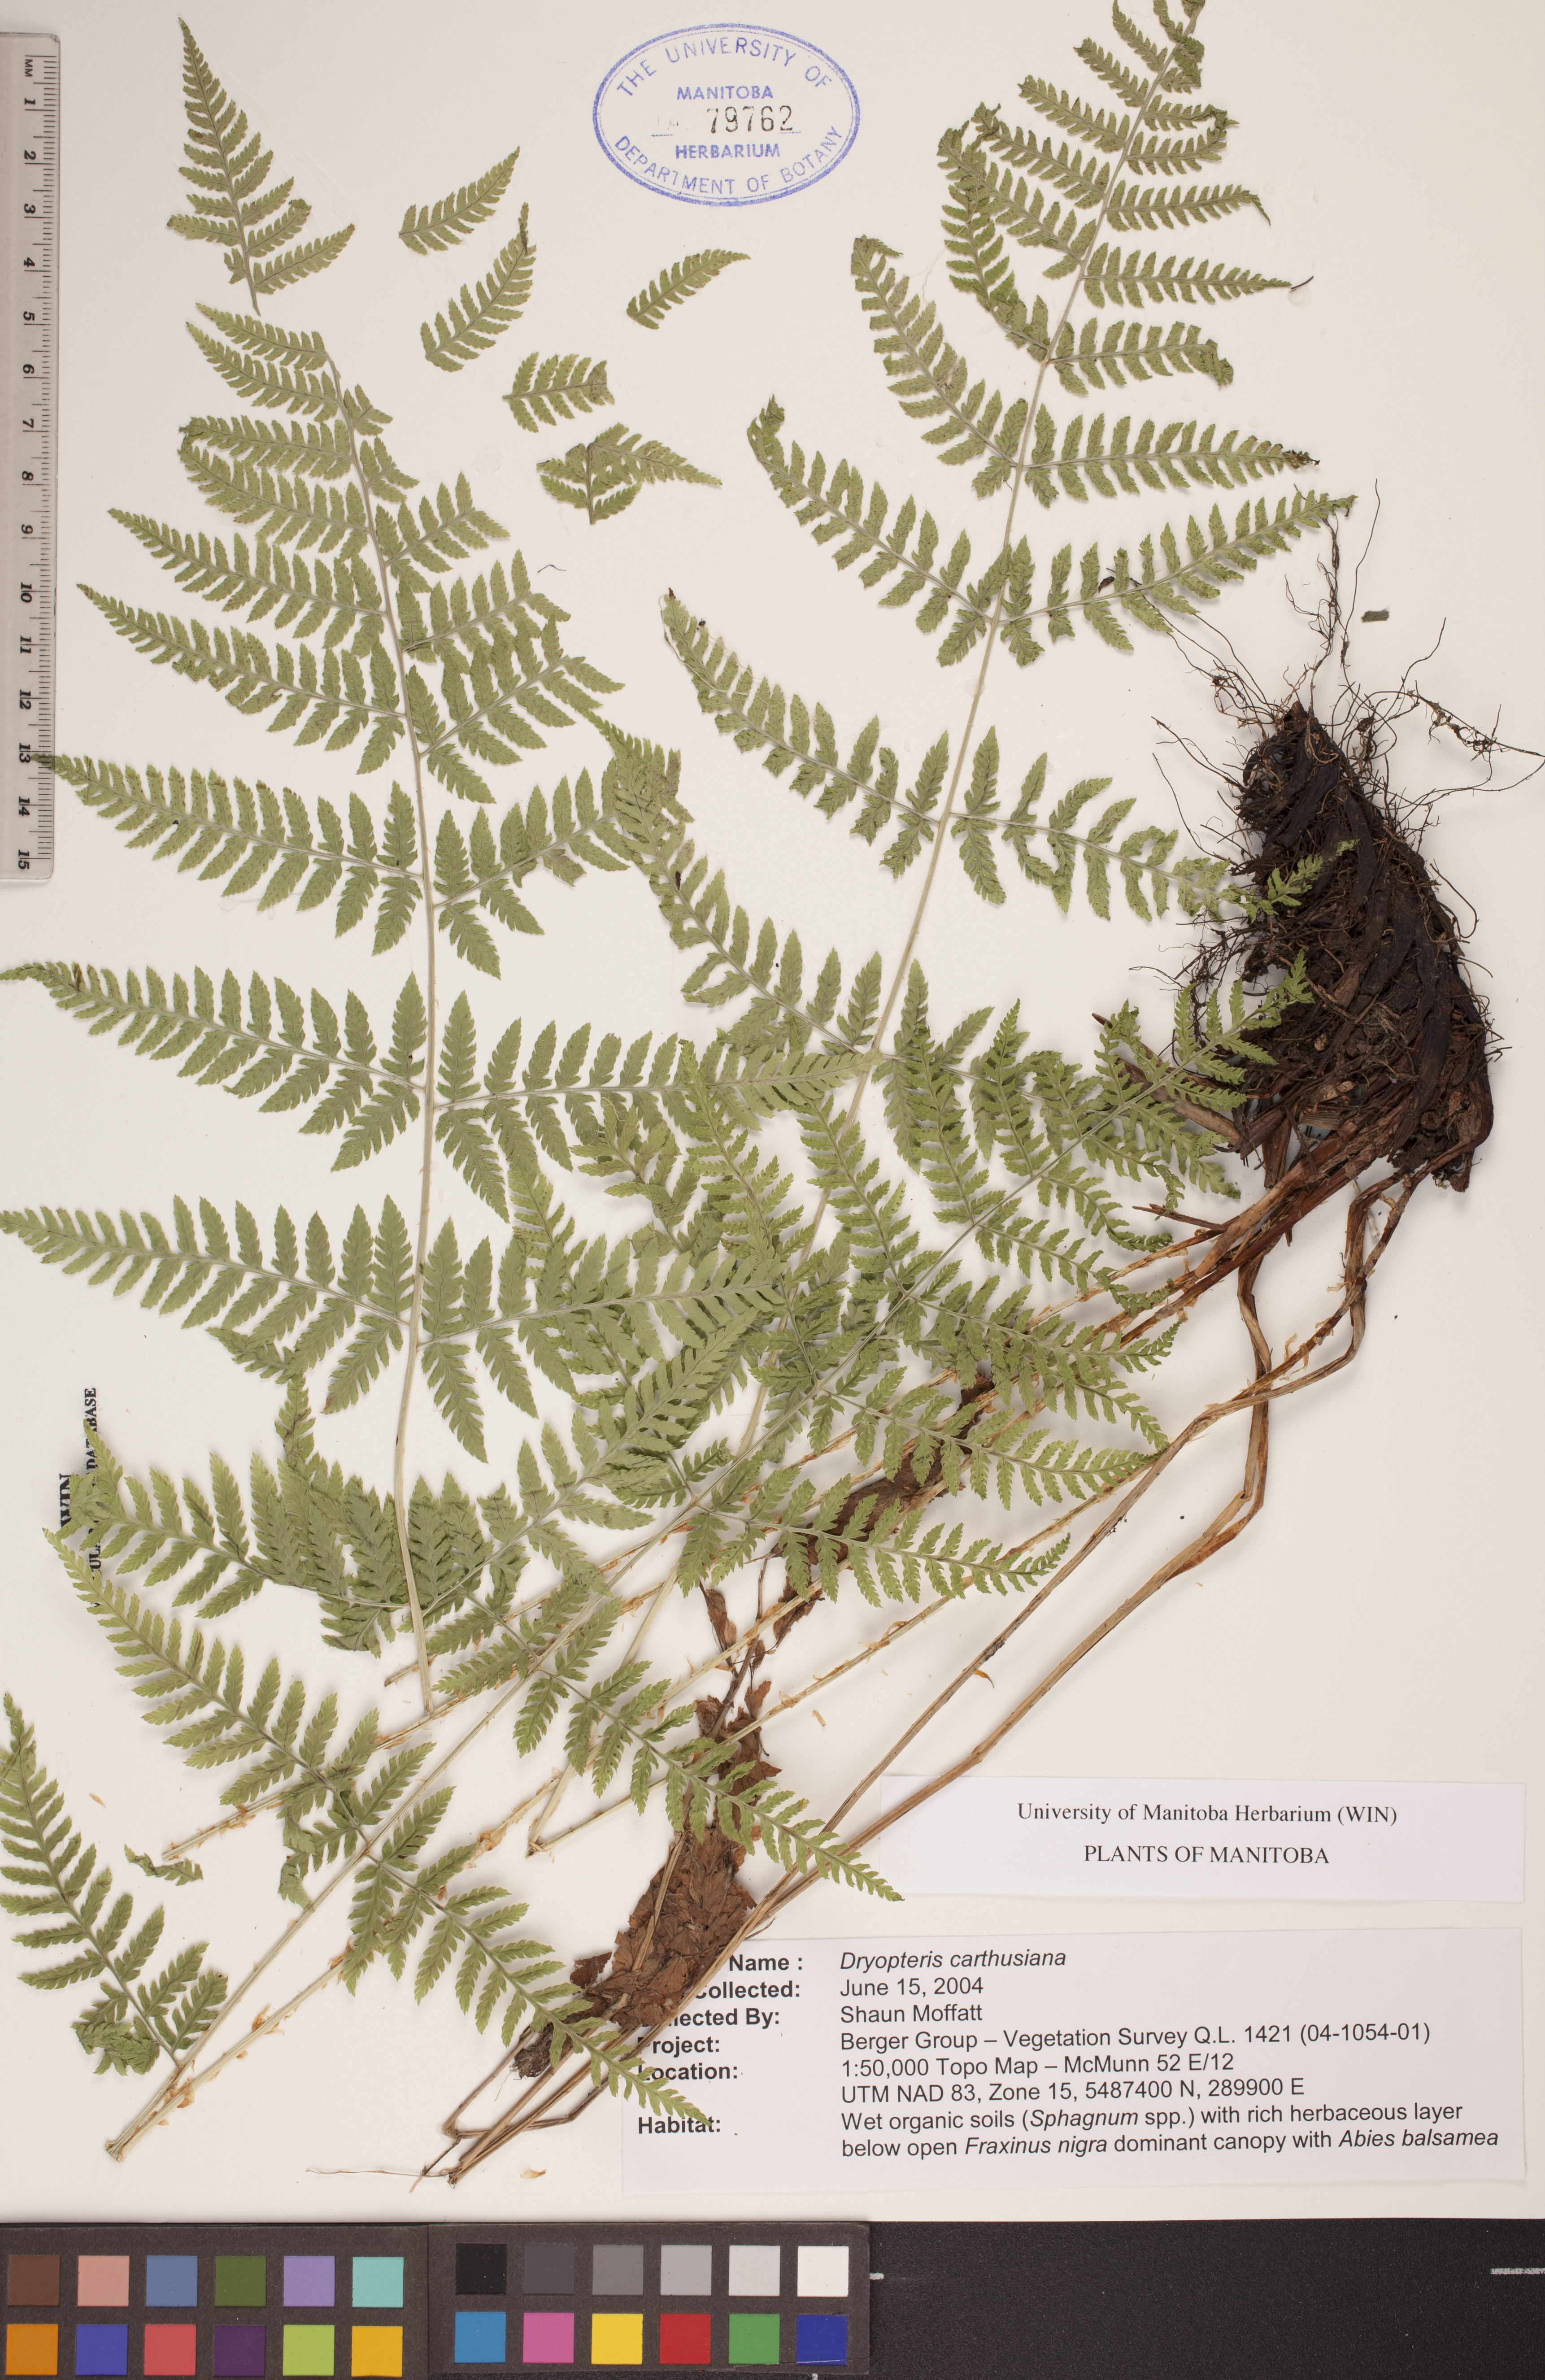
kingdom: Plantae
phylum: Tracheophyta
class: Polypodiopsida
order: Polypodiales
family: Dryopteridaceae
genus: Dryopteris
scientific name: Dryopteris carthusiana
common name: Narrow buckler-fern
